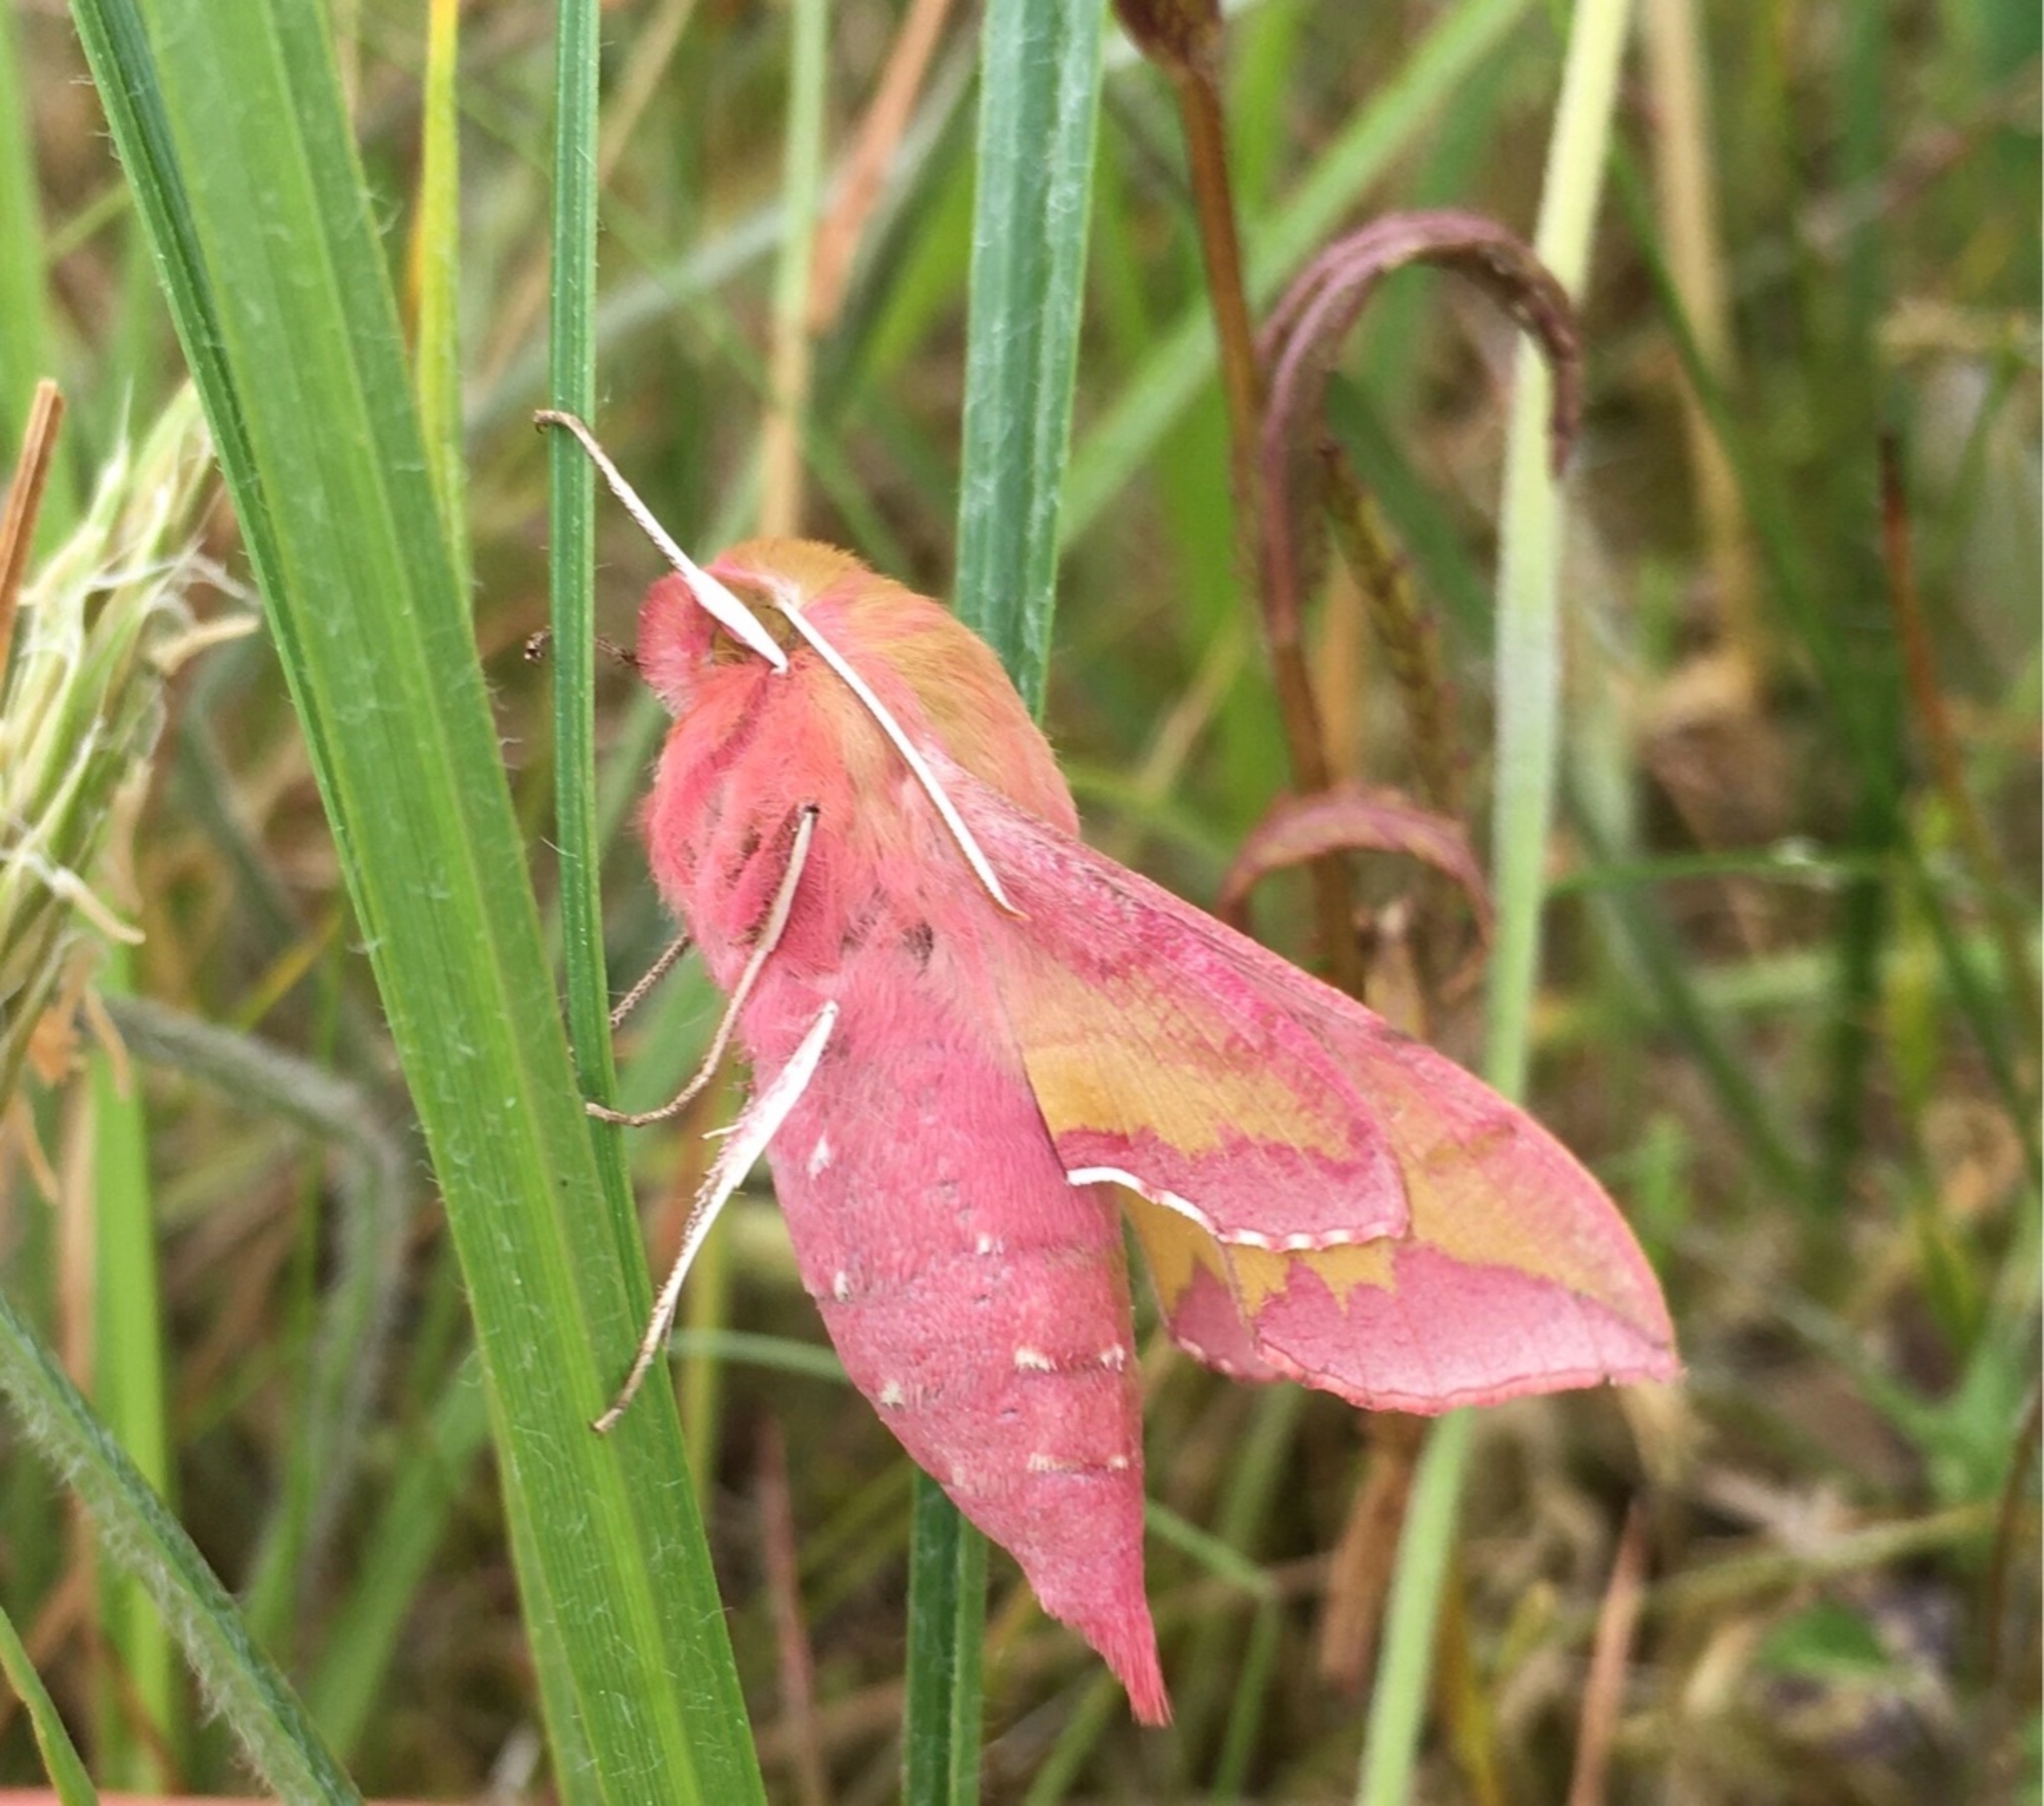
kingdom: Animalia
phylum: Arthropoda
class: Insecta
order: Lepidoptera
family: Sphingidae
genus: Deilephila
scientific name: Deilephila porcellus
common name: Lille vinsværmer
